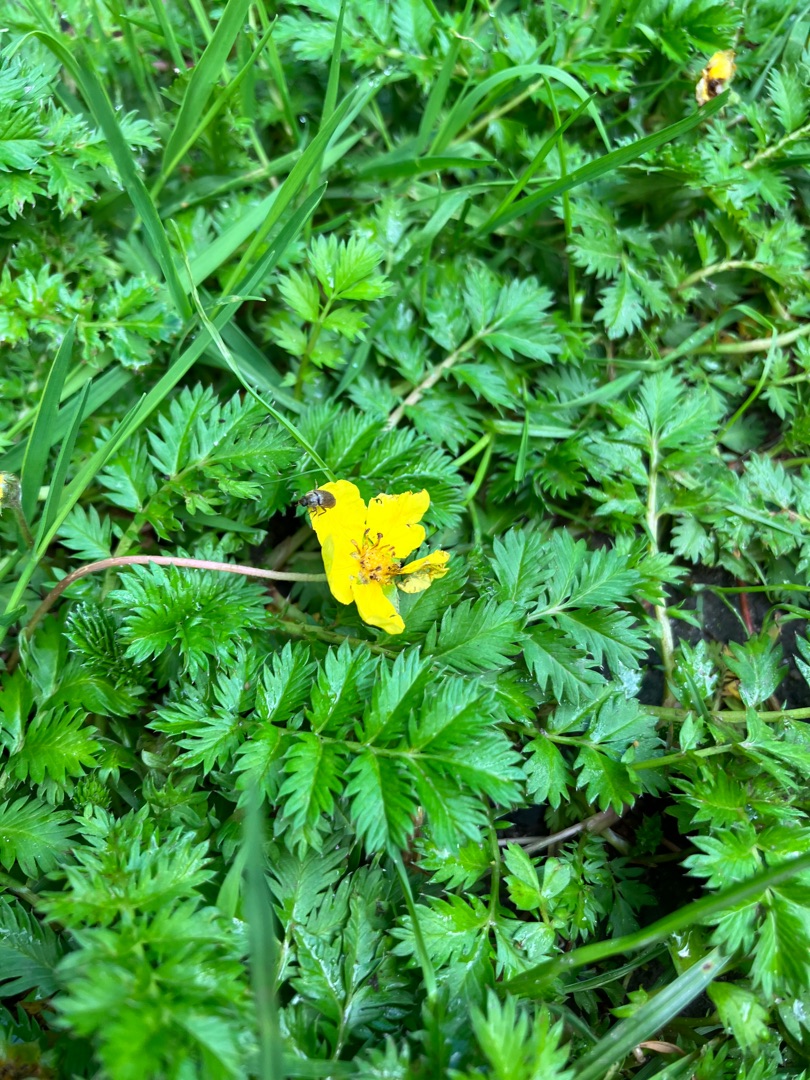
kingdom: Plantae
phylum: Tracheophyta
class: Magnoliopsida
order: Rosales
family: Rosaceae
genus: Argentina
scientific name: Argentina anserina
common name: Gåsepotentil
